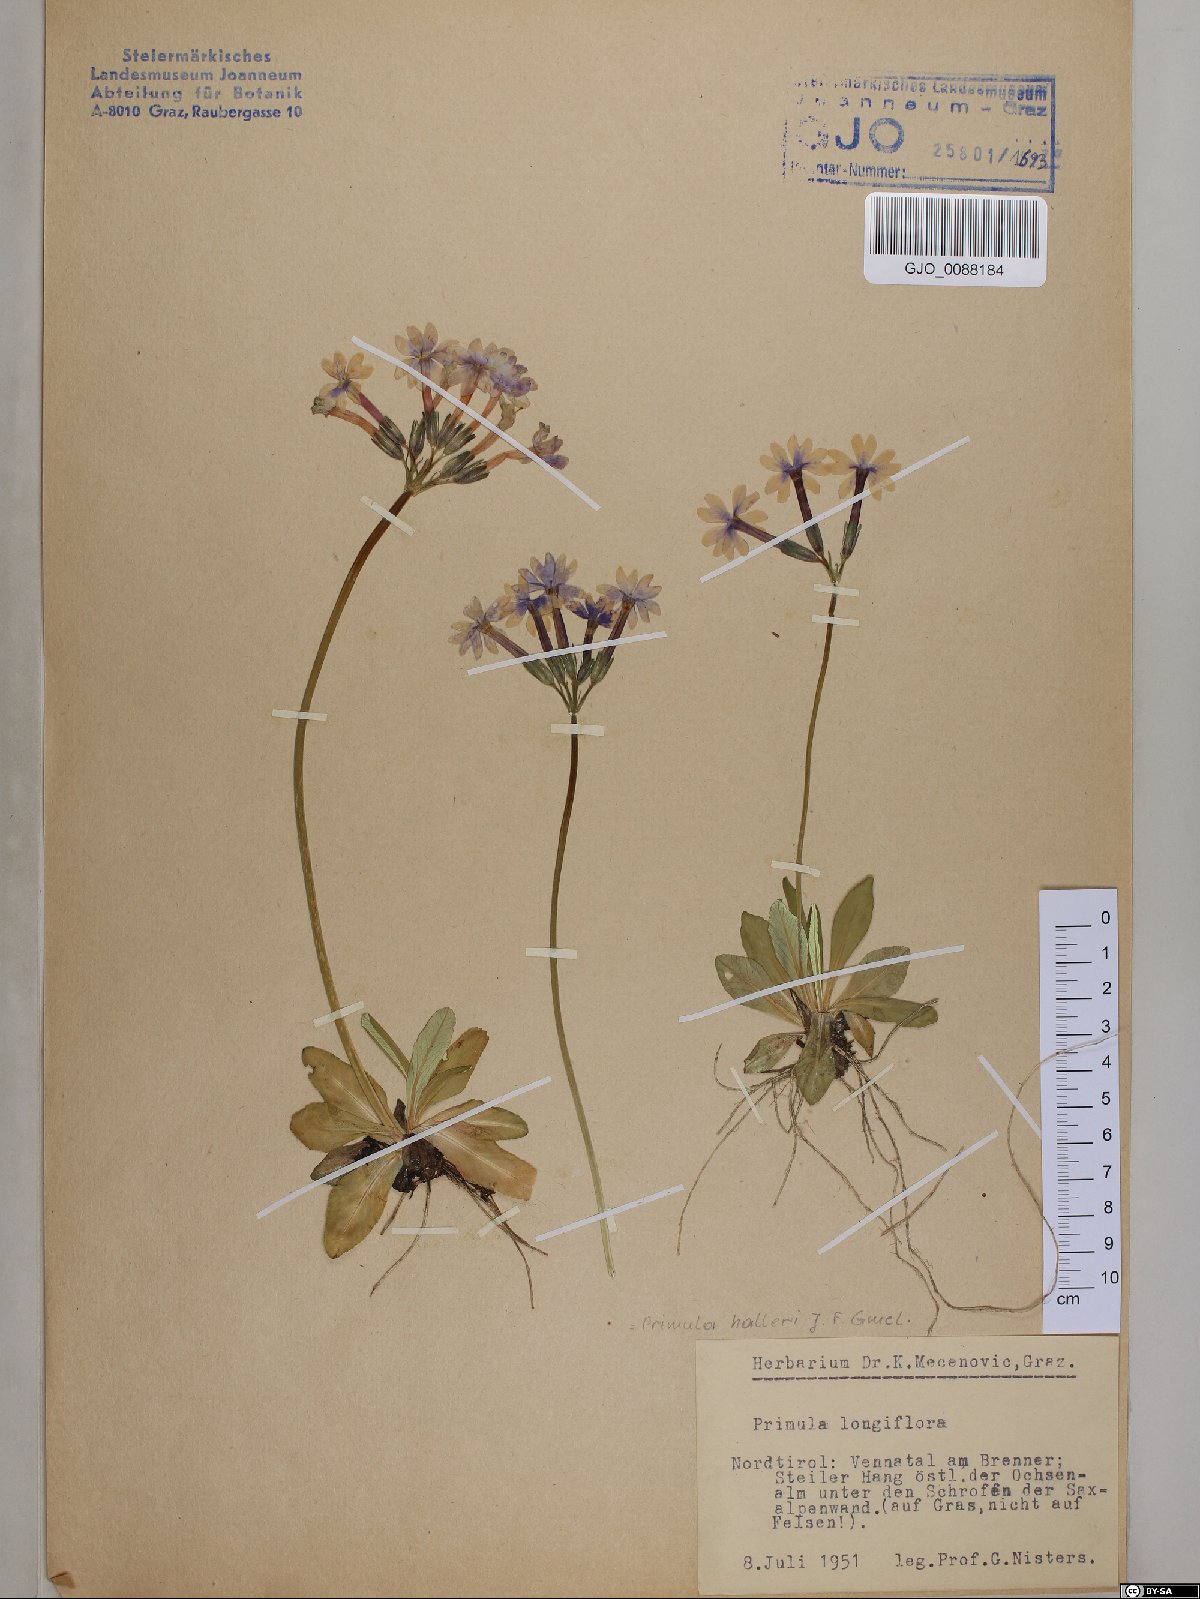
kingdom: Plantae
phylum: Tracheophyta
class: Magnoliopsida
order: Ericales
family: Primulaceae
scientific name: Primulaceae
